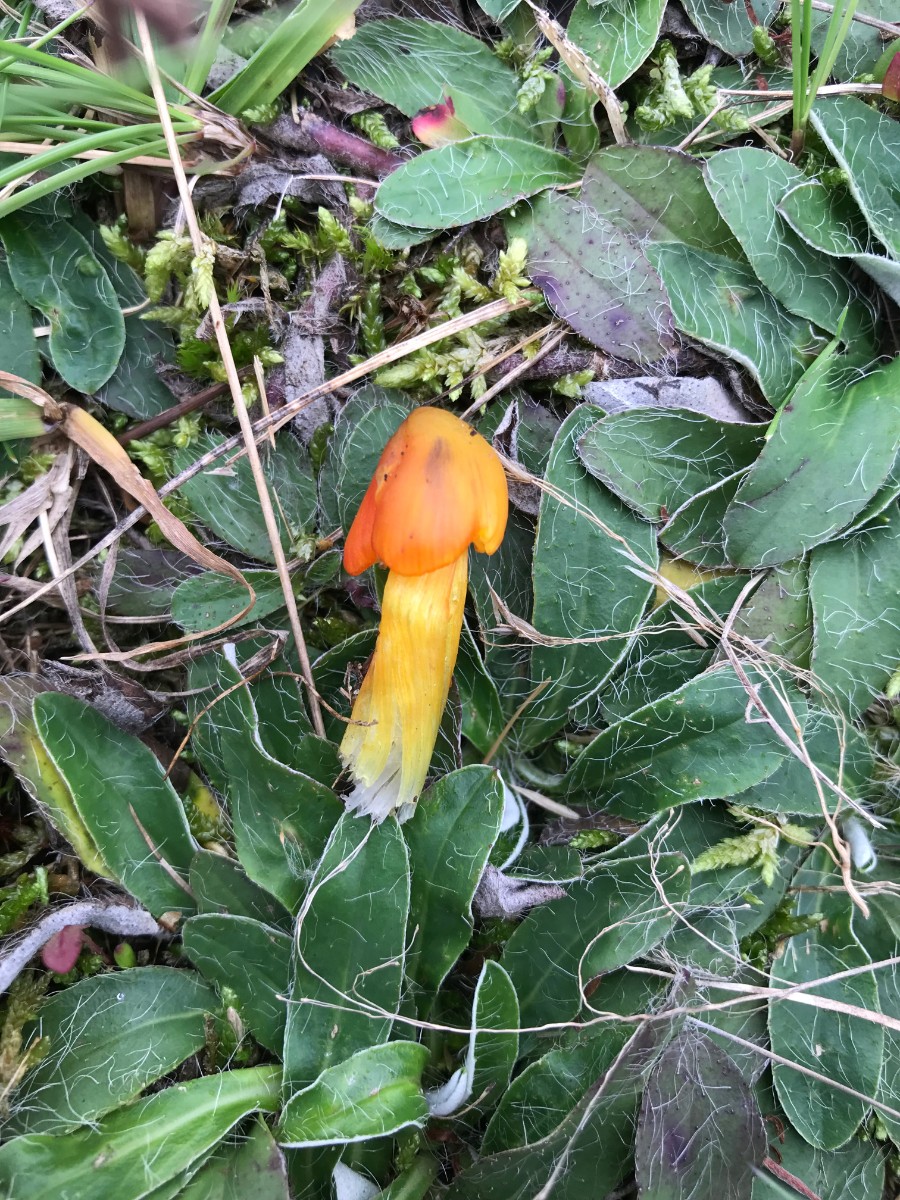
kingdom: Fungi
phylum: Basidiomycota
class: Agaricomycetes
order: Agaricales
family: Hygrophoraceae
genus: Hygrocybe
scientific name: Hygrocybe conica
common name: kegle-vokshat
